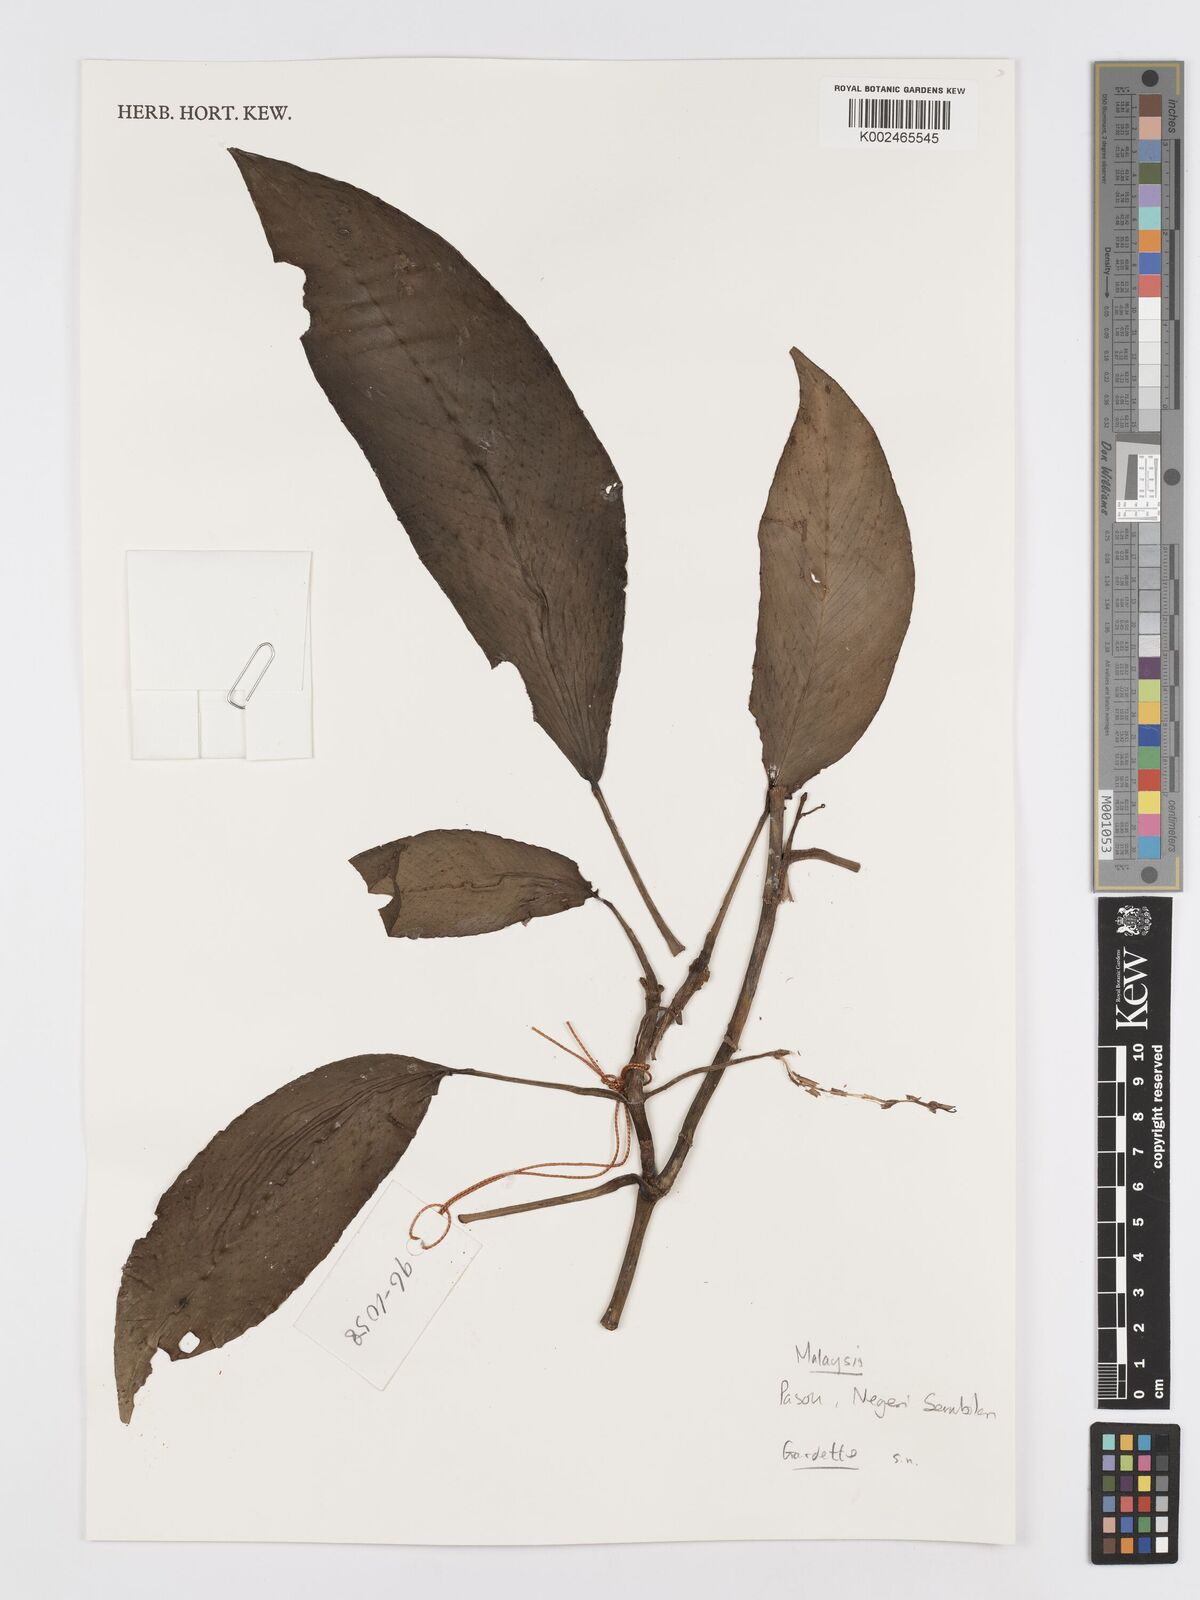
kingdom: Plantae
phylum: Tracheophyta
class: Liliopsida
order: Alismatales
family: Araceae
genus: Rhaphidophora
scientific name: Rhaphidophora
